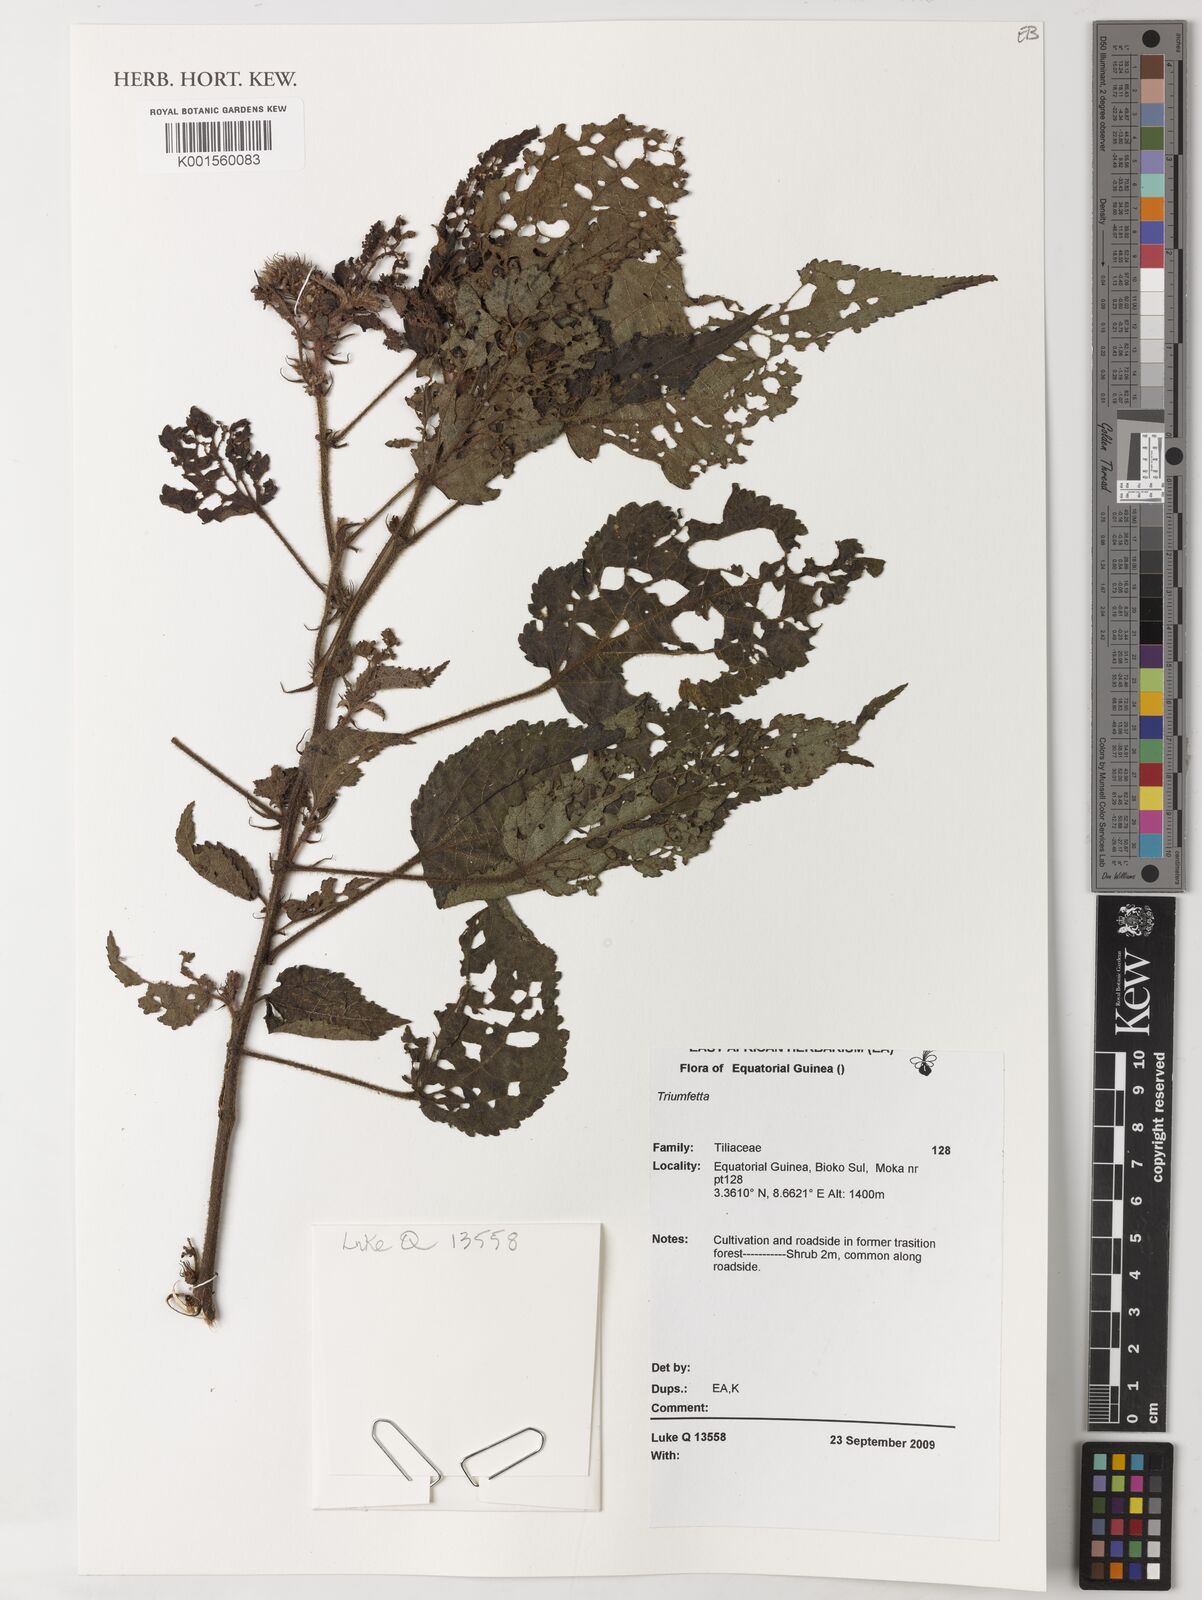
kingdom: Plantae
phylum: Tracheophyta
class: Magnoliopsida
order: Malvales
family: Malvaceae
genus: Triumfetta
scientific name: Triumfetta
